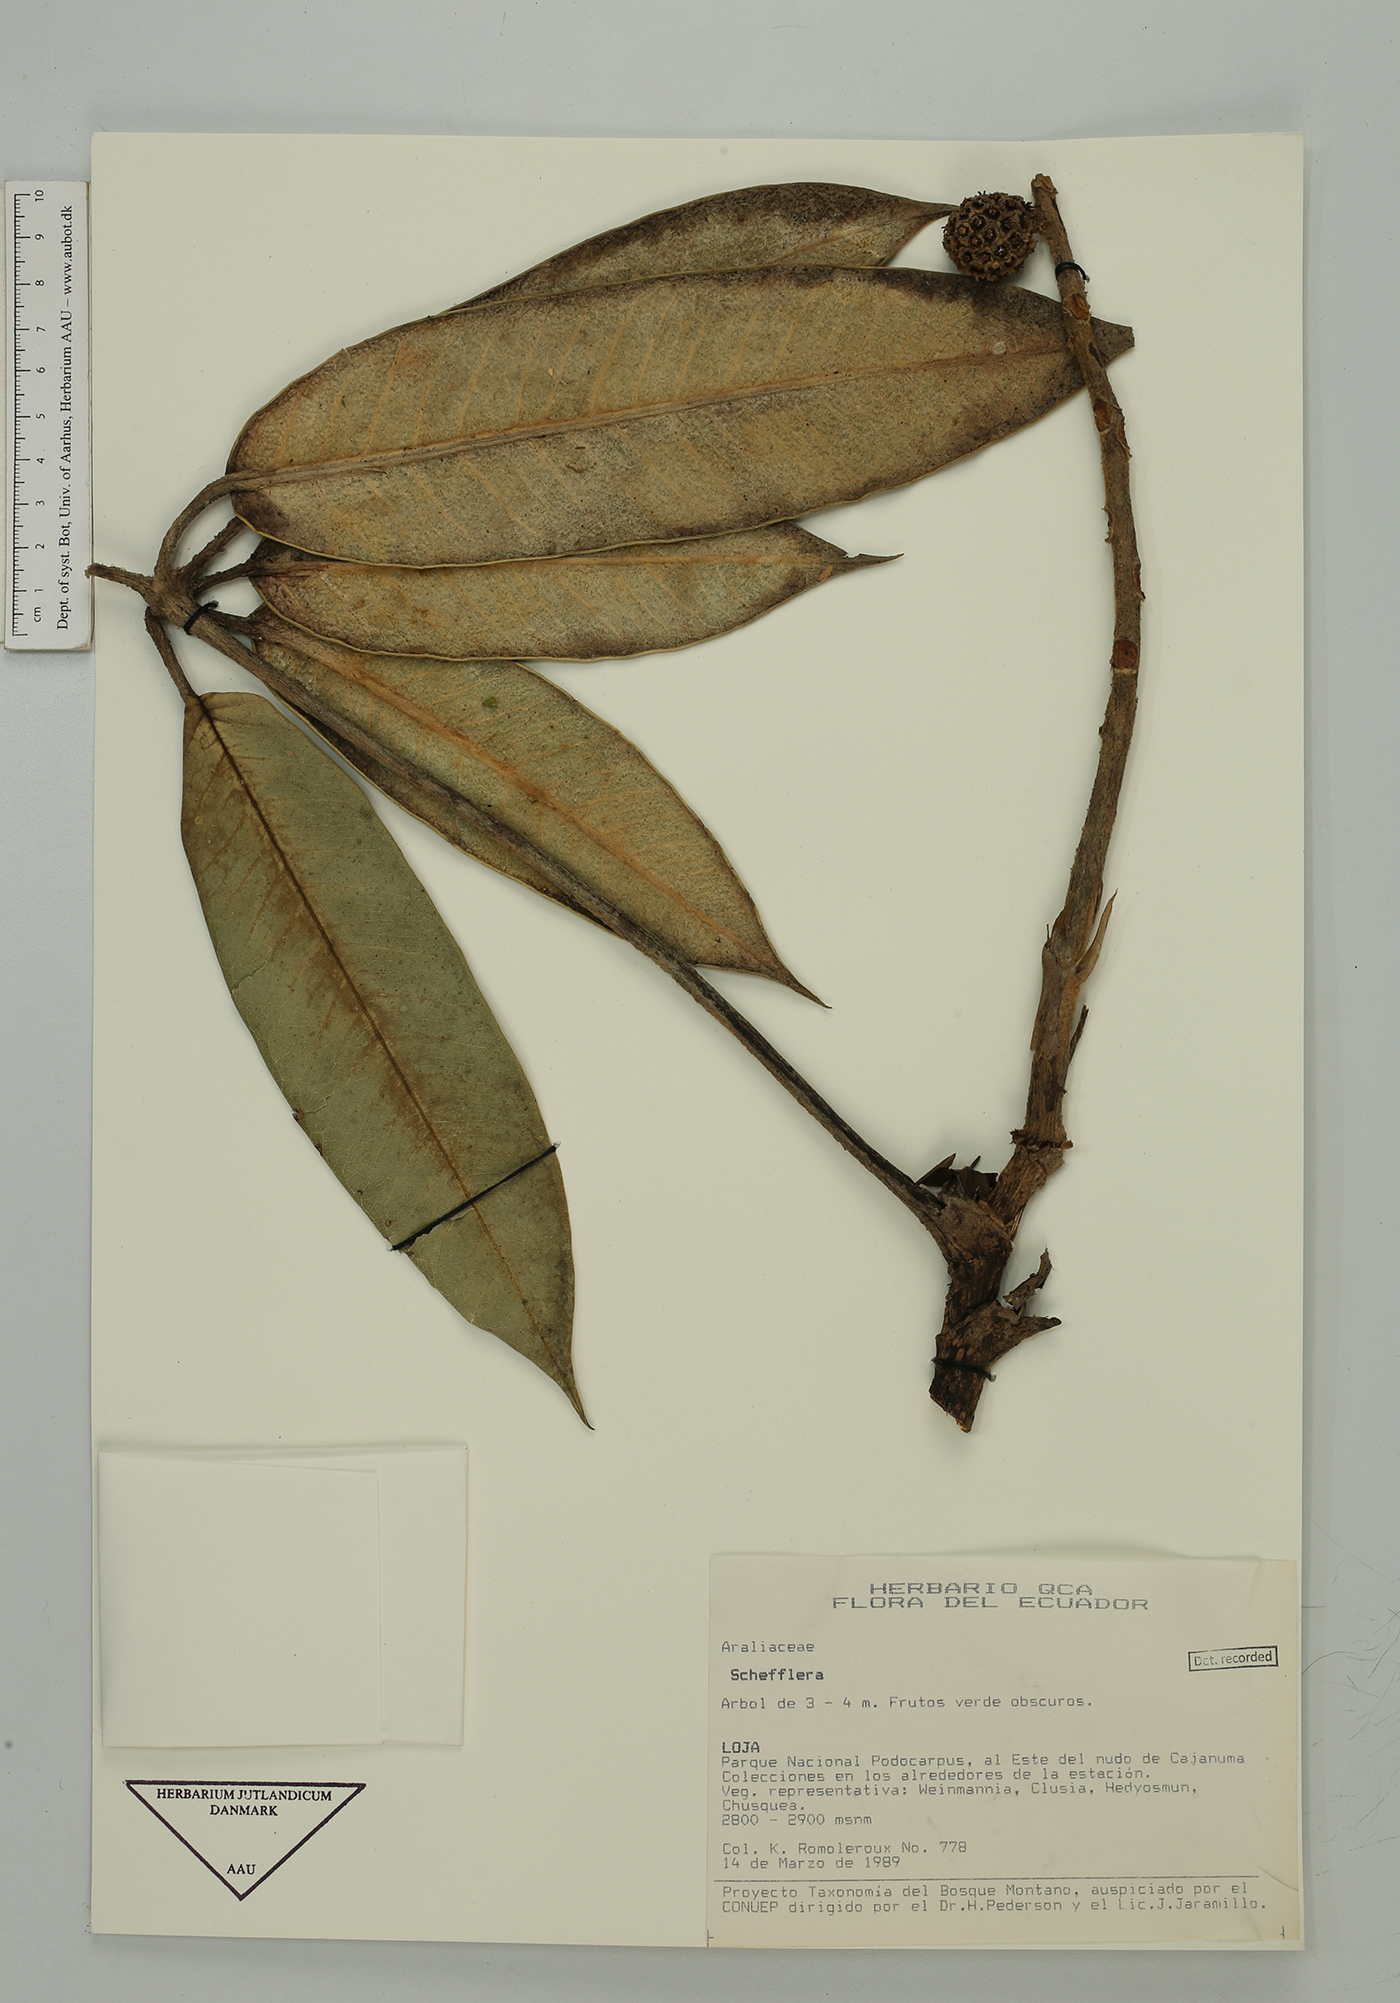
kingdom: Plantae
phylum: Tracheophyta
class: Magnoliopsida
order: Apiales
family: Araliaceae
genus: Sciodaphyllum
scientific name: Sciodaphyllum
